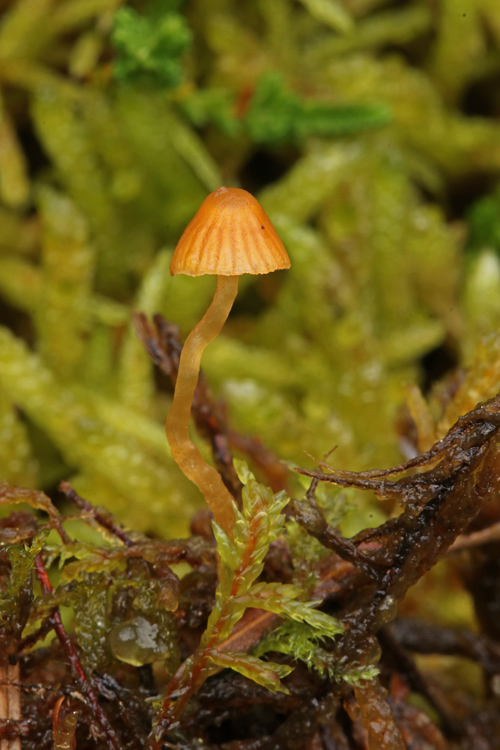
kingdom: Fungi
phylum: Basidiomycota
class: Agaricomycetes
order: Agaricales
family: Hymenogastraceae
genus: Galerina
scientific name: Galerina
